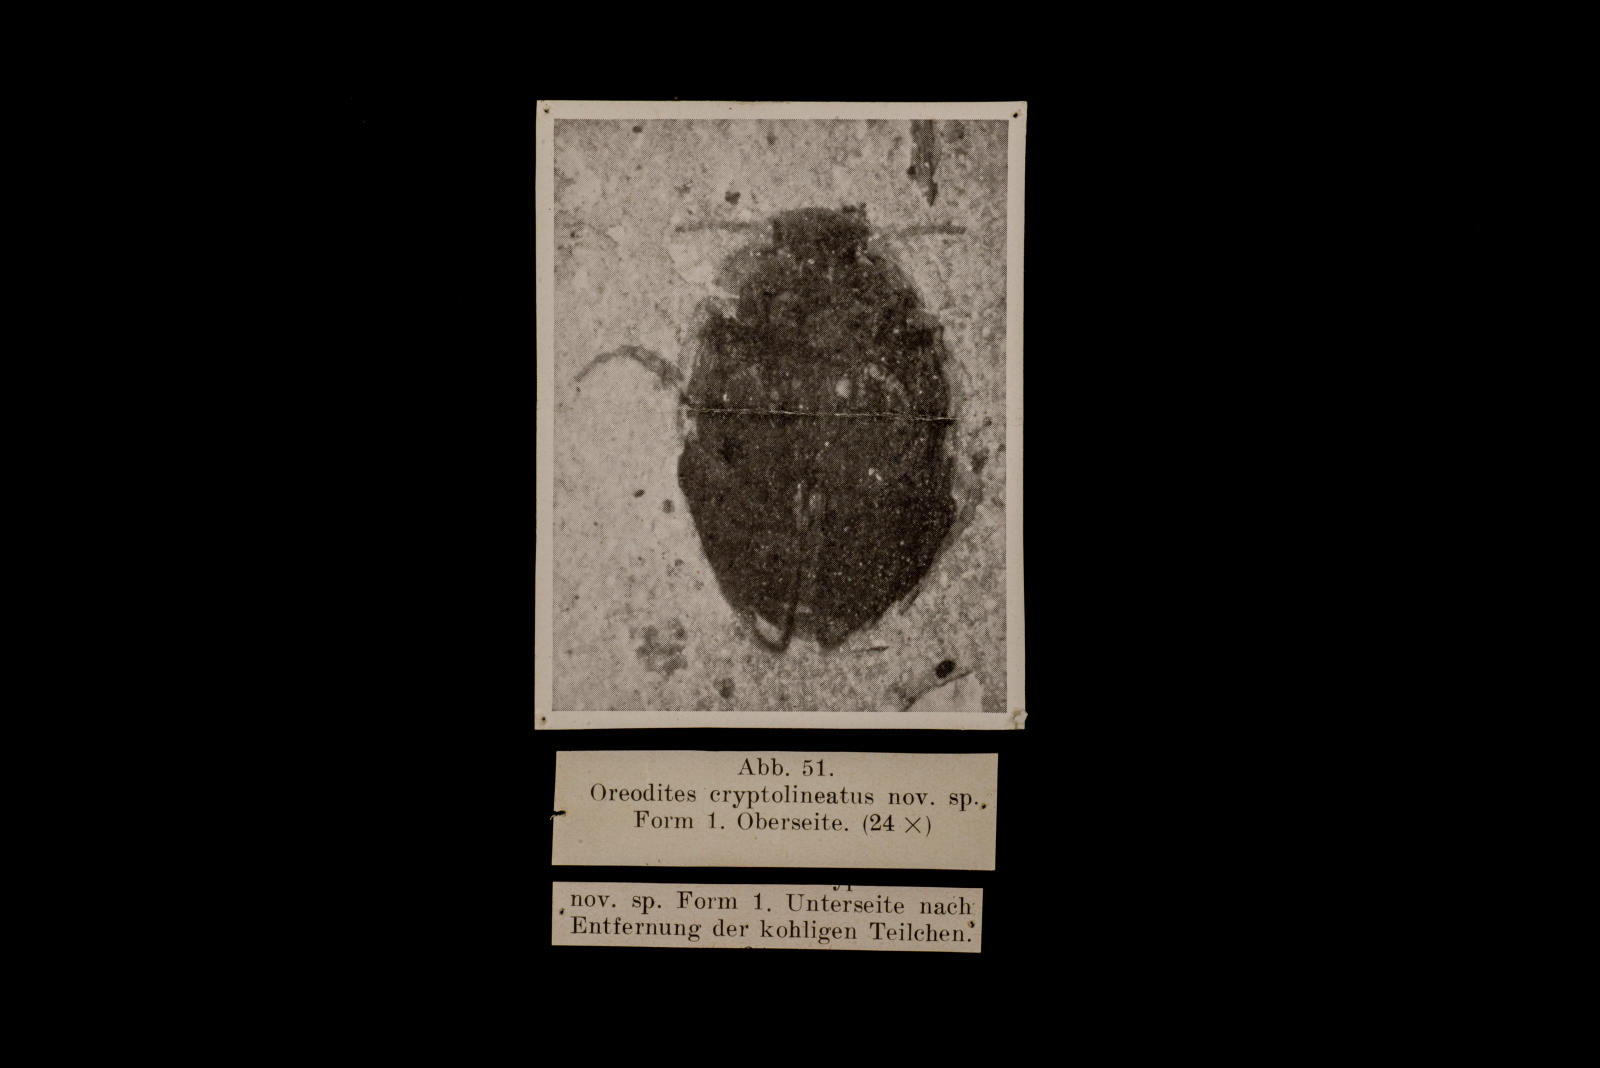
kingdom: Animalia
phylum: Arthropoda
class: Insecta
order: Coleoptera
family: Dytiscidae
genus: Oreodytes
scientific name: Oreodytes cryptolineatus
